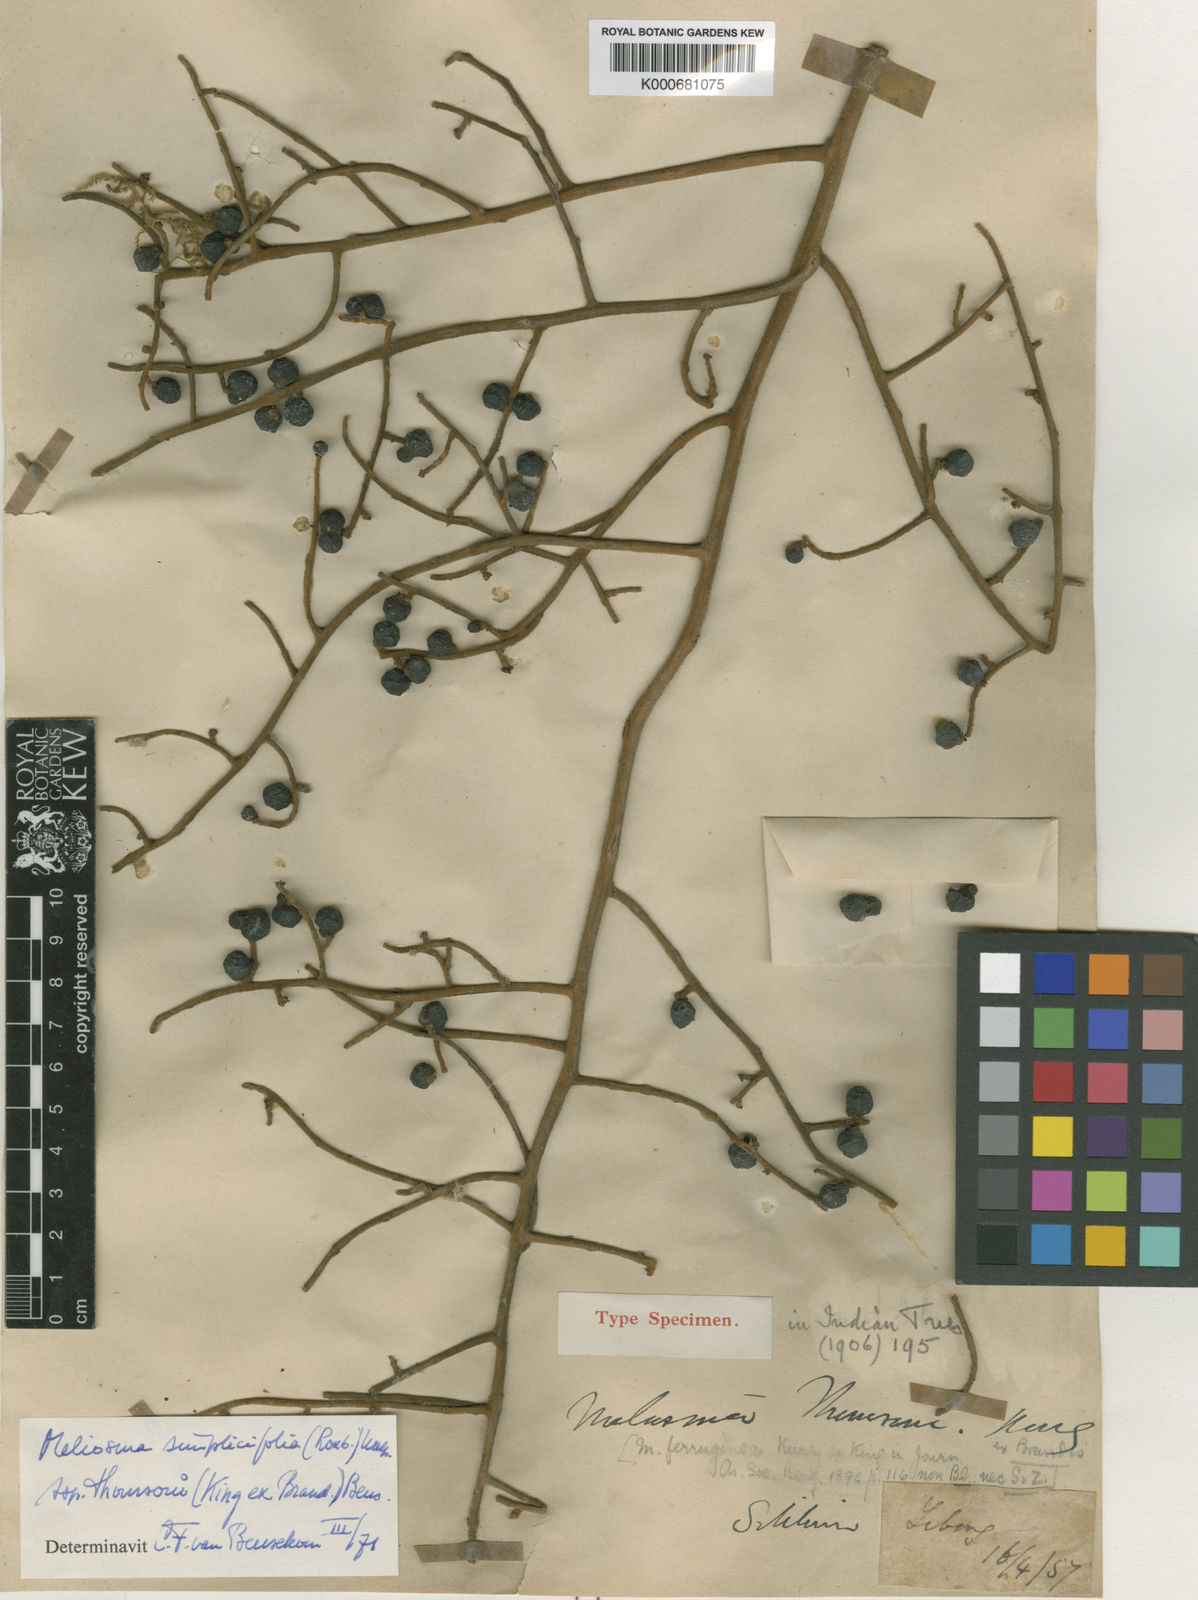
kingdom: Plantae
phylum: Tracheophyta
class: Magnoliopsida
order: Proteales
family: Sabiaceae
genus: Meliosma
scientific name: Meliosma thomsonii
